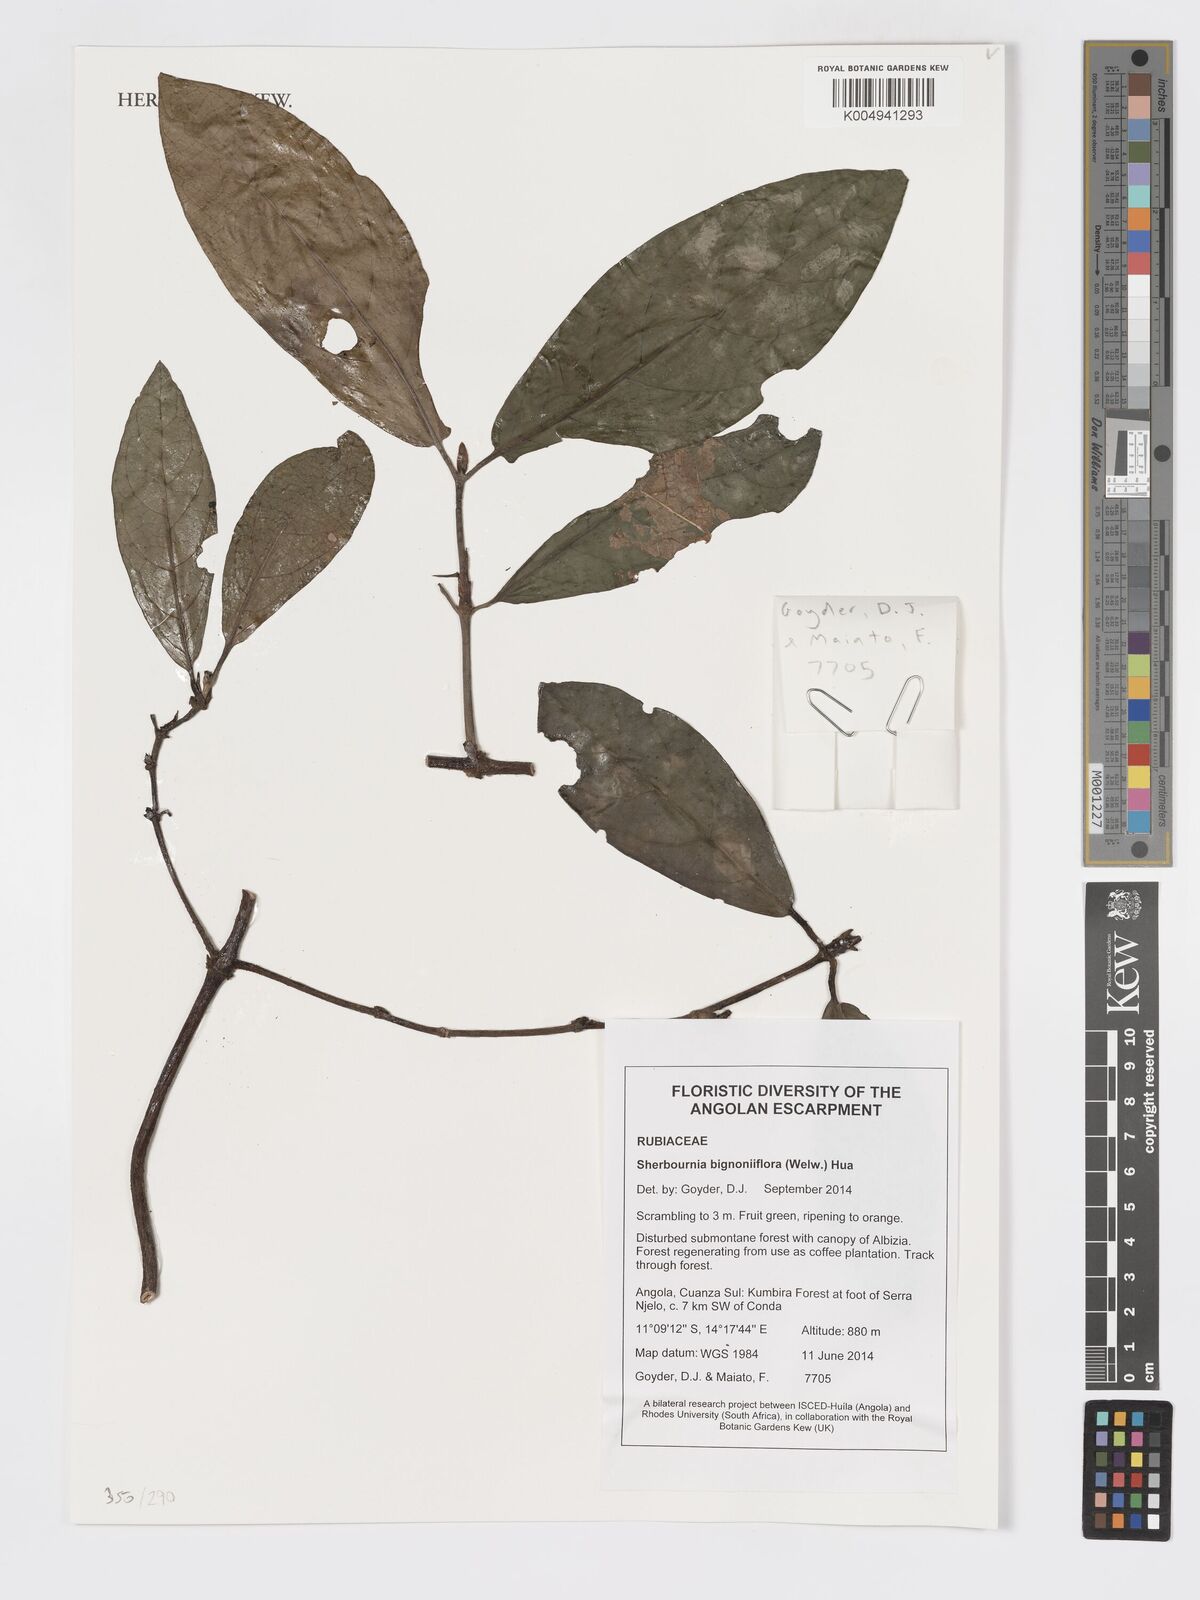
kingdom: Plantae
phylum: Tracheophyta
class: Magnoliopsida
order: Gentianales
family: Rubiaceae
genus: Sherbournia
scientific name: Sherbournia bignoniiflora
